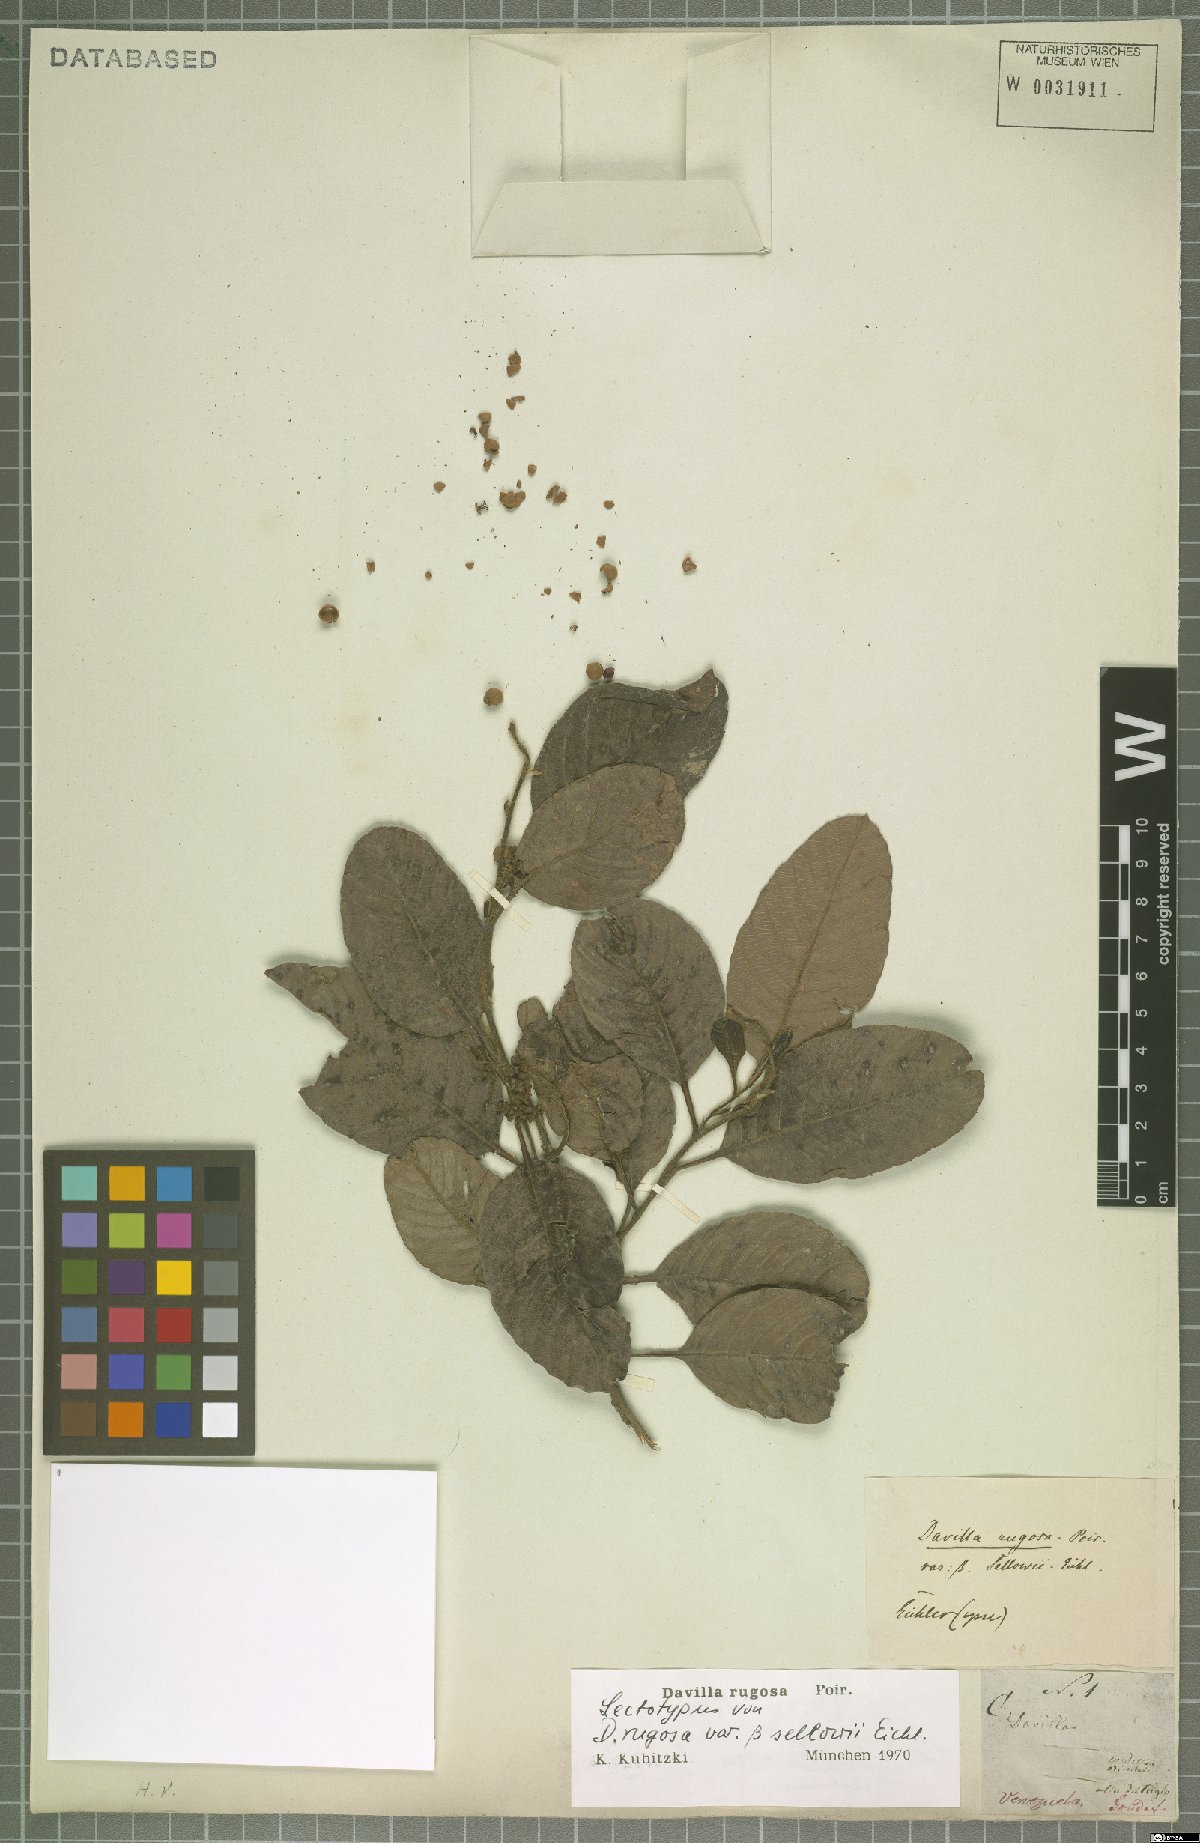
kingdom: Plantae
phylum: Tracheophyta
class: Magnoliopsida
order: Dilleniales
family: Dilleniaceae
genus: Davilla
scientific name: Davilla rugosa
